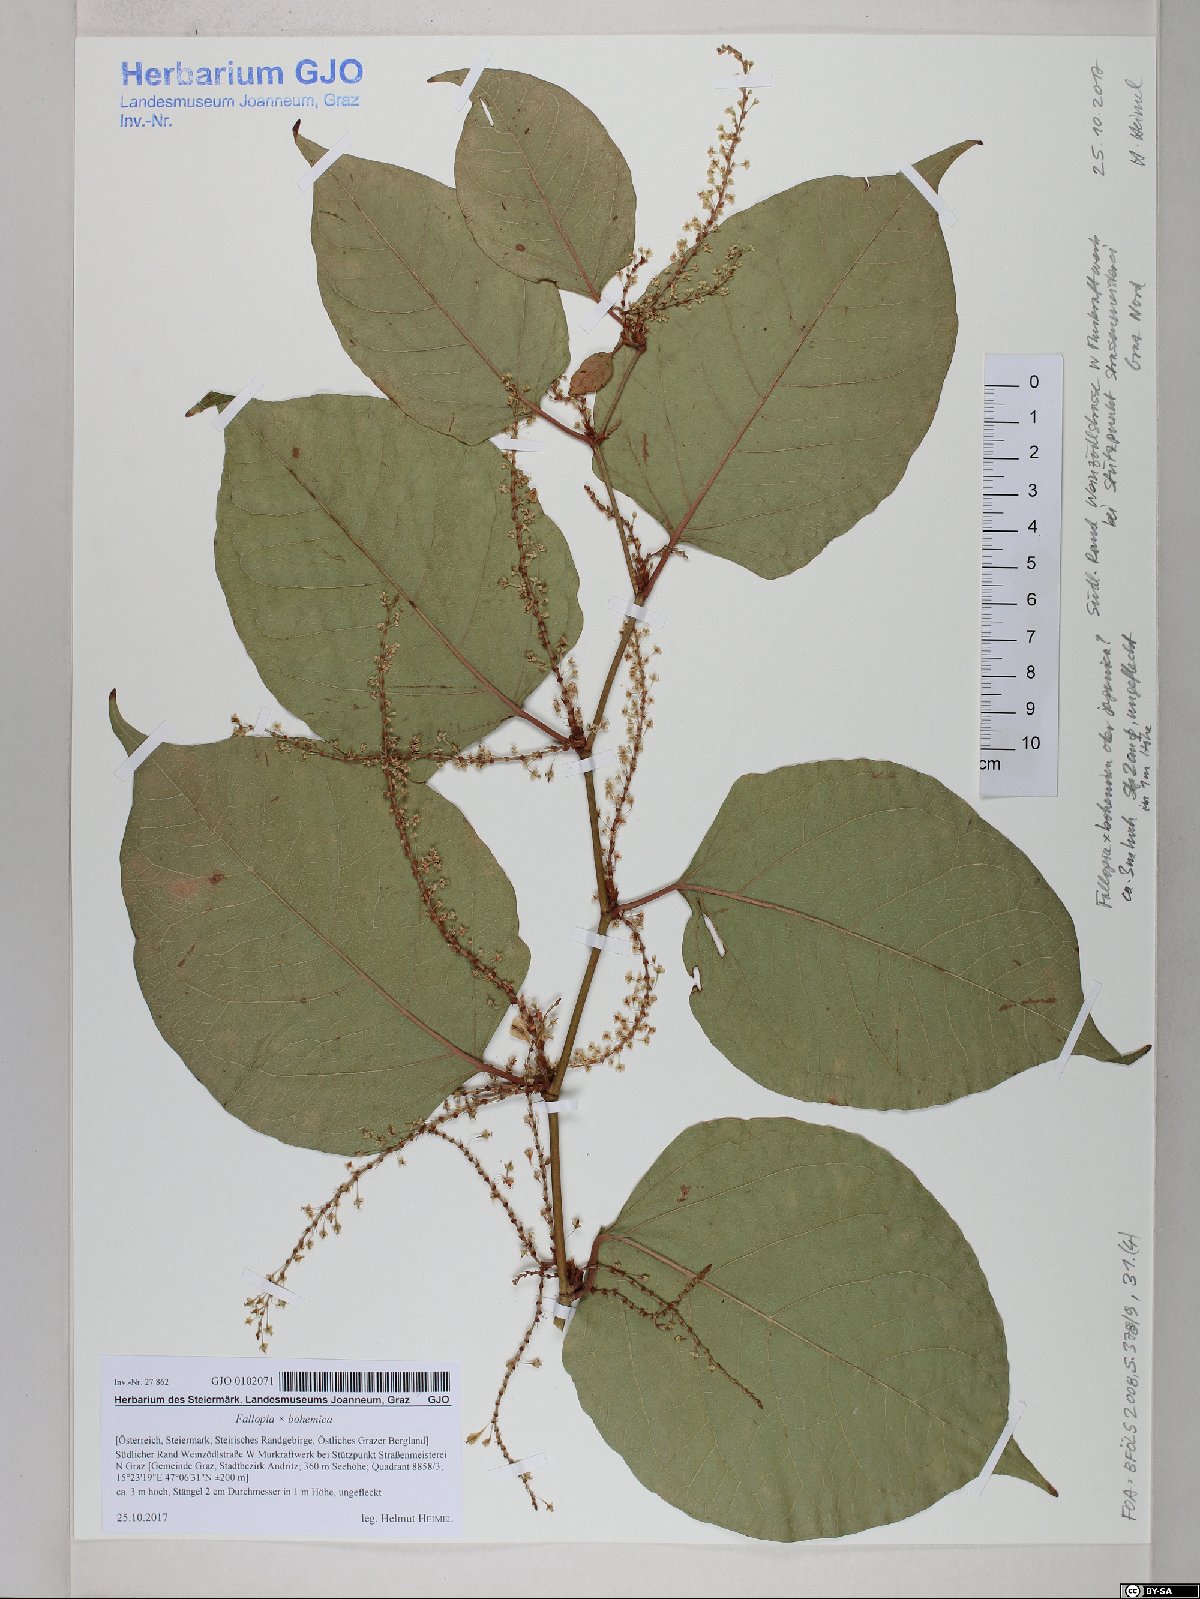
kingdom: Plantae
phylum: Tracheophyta
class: Magnoliopsida
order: Caryophyllales
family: Polygonaceae
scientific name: Polygonaceae
